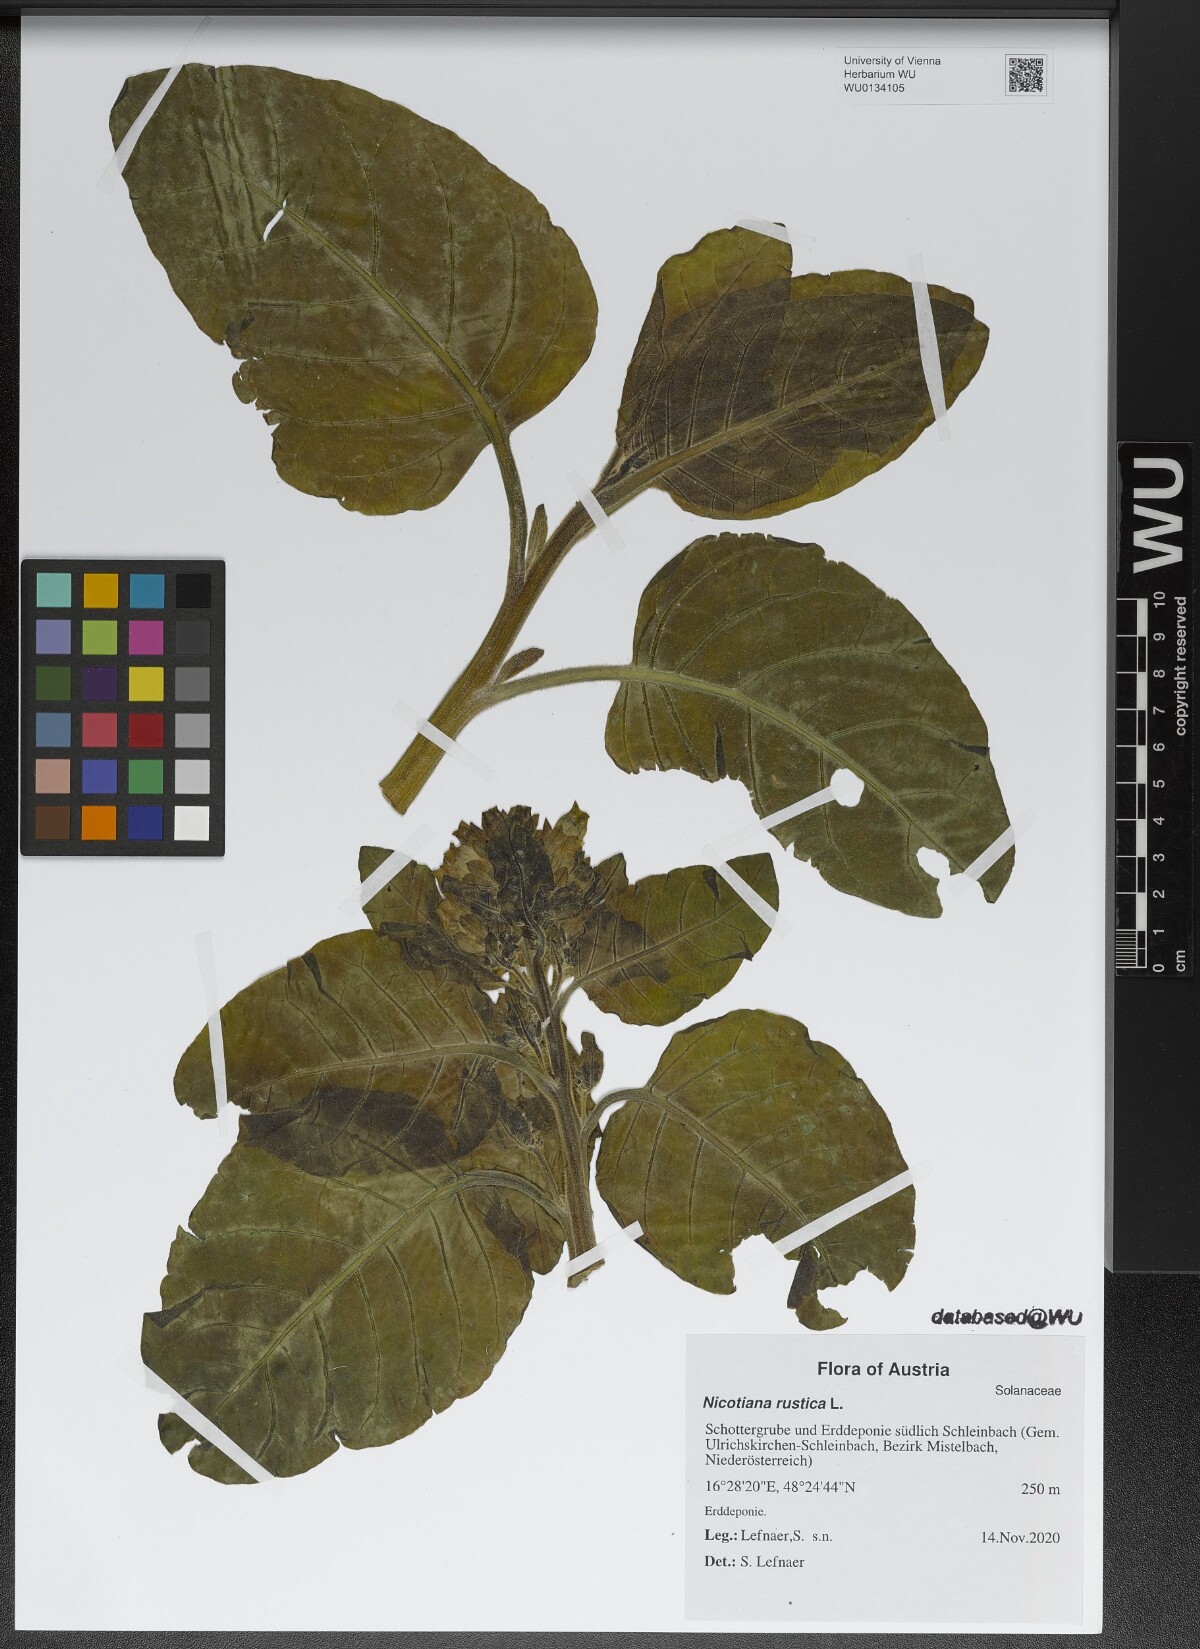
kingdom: Plantae
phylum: Tracheophyta
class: Magnoliopsida
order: Solanales
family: Solanaceae
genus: Nicotiana
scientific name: Nicotiana rustica
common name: Wild tobacco
